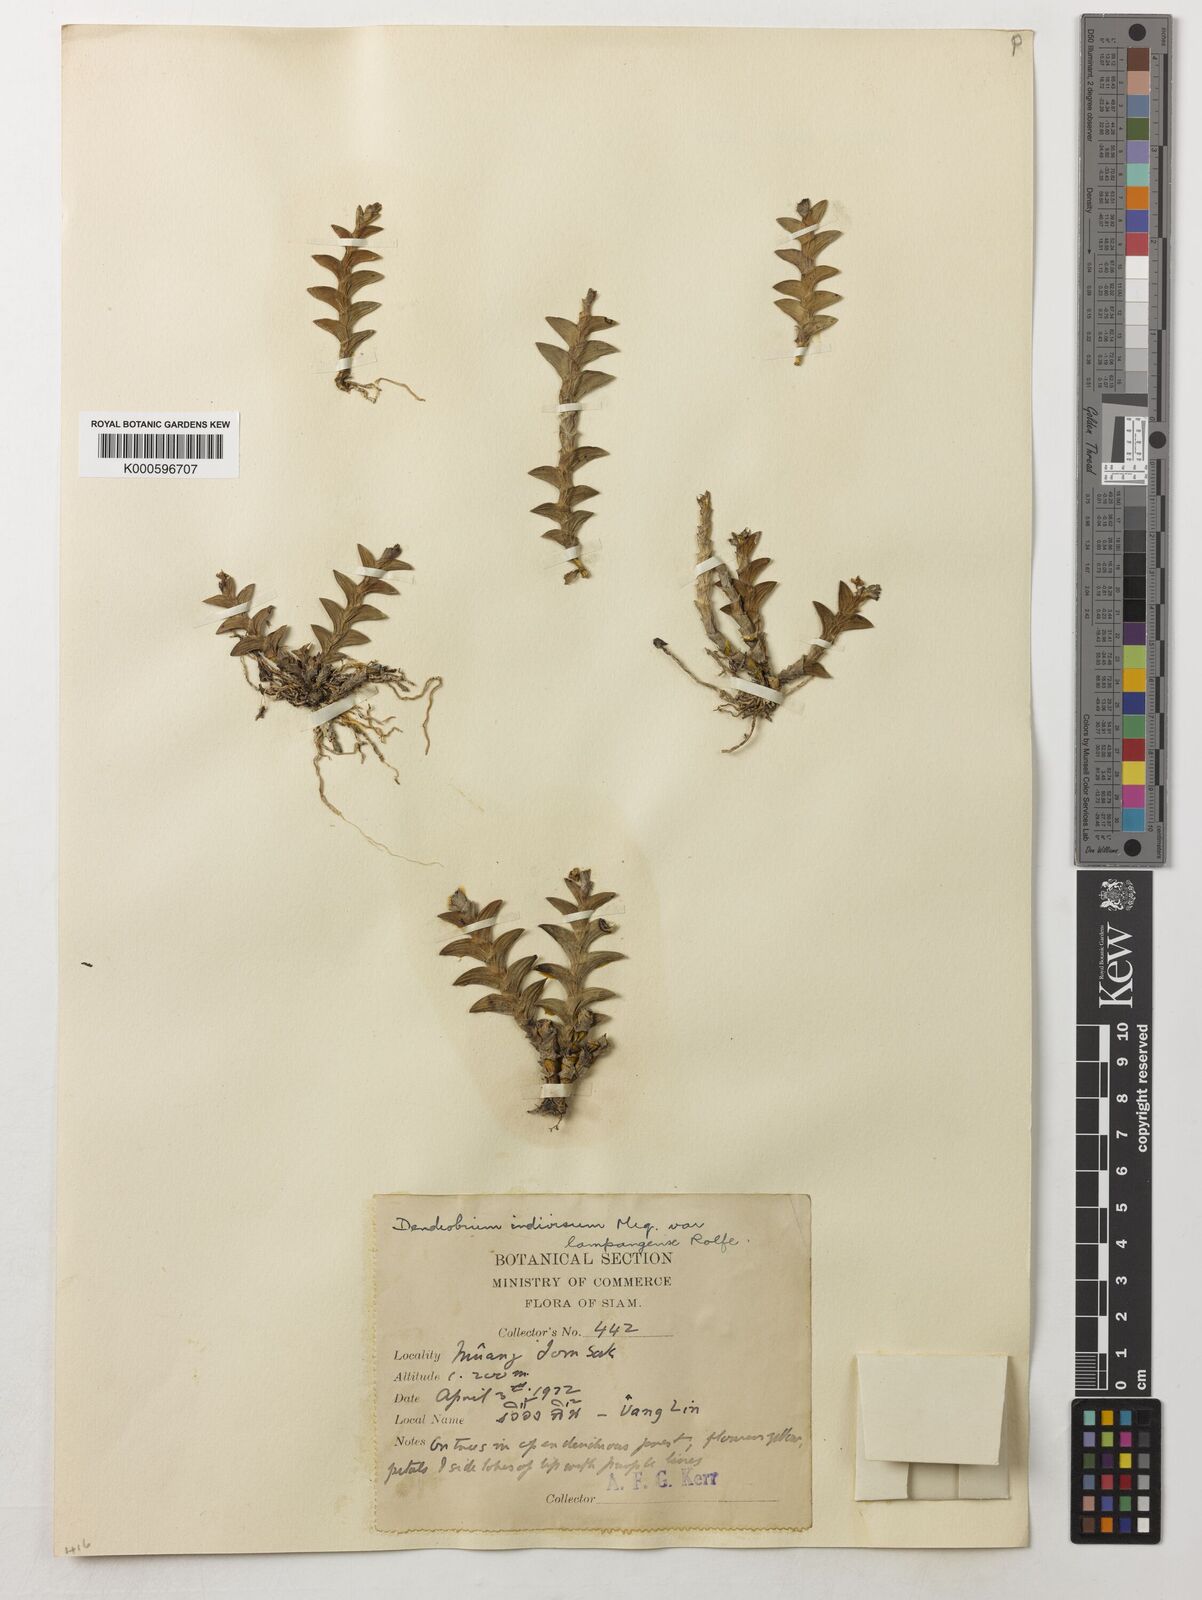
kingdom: Plantae
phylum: Tracheophyta
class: Liliopsida
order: Asparagales
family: Orchidaceae
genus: Dendrobium
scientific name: Dendrobium indivisum
